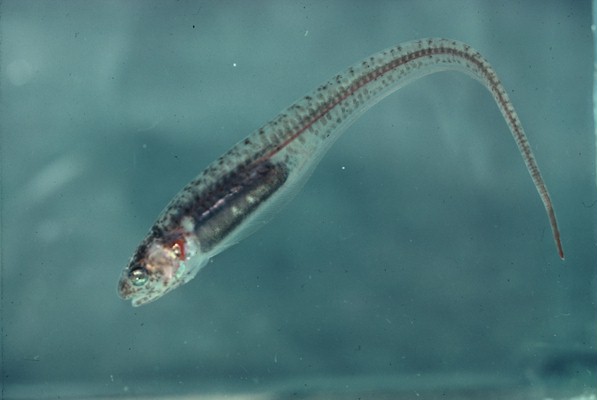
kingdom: Animalia
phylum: Chordata
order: Ophidiiformes
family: Carapidae
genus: Carapus
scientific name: Carapus mourlani
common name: Star pearlfish
